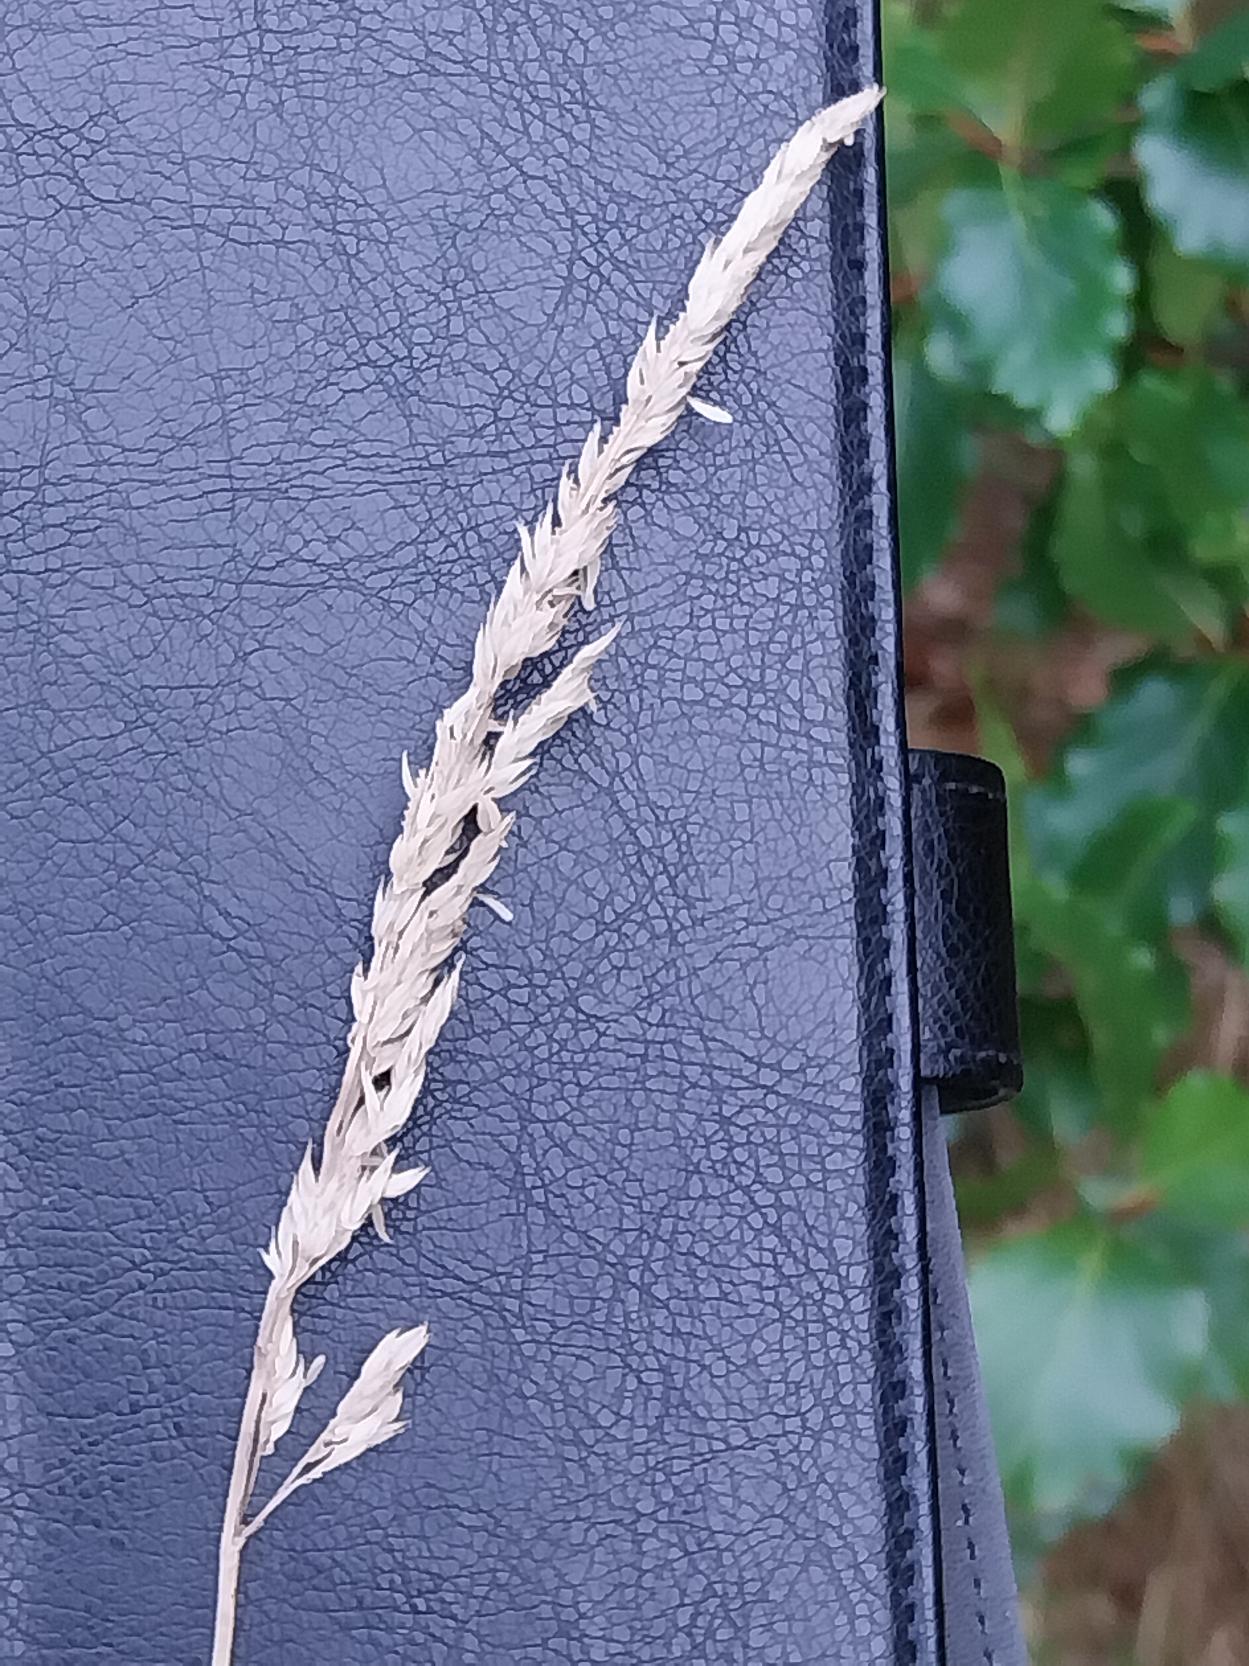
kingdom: Plantae
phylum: Tracheophyta
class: Liliopsida
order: Poales
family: Poaceae
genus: Phalaris
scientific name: Phalaris arundinacea
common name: Rørgræs
